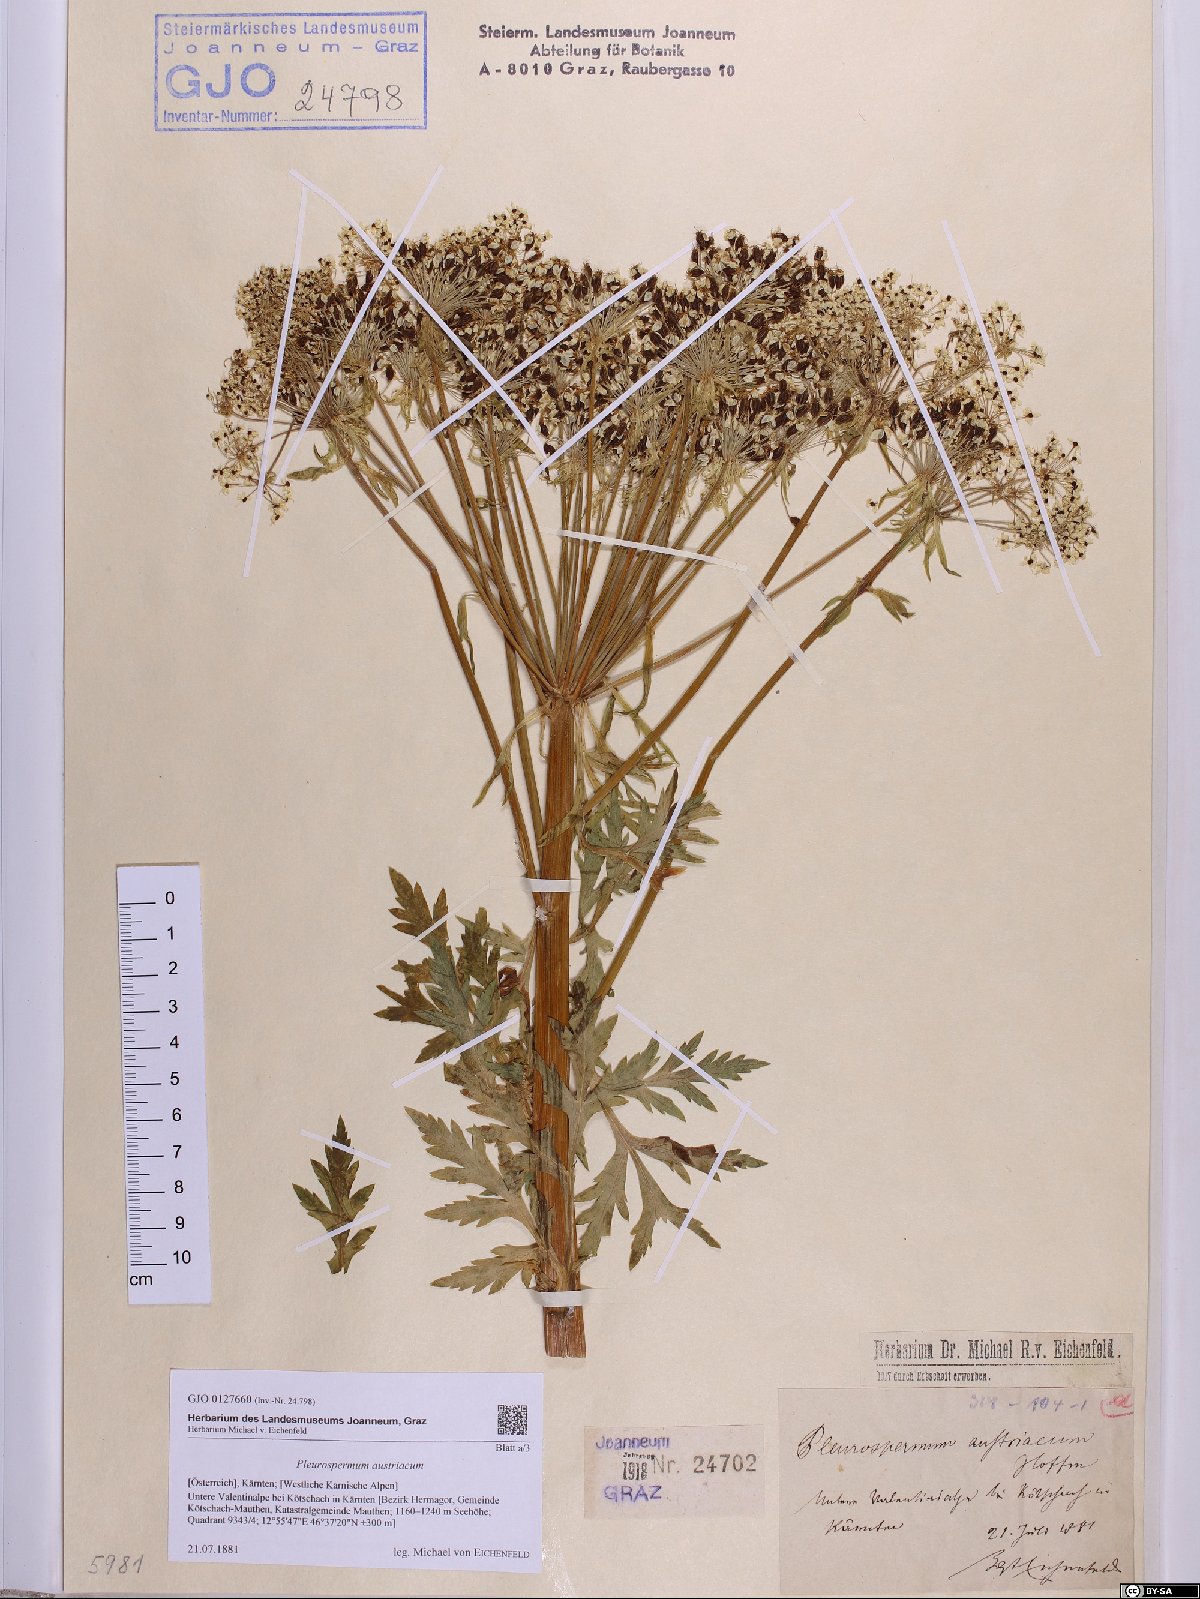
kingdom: Plantae
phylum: Tracheophyta
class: Magnoliopsida
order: Apiales
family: Apiaceae
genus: Pleurospermum
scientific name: Pleurospermum austriacum
